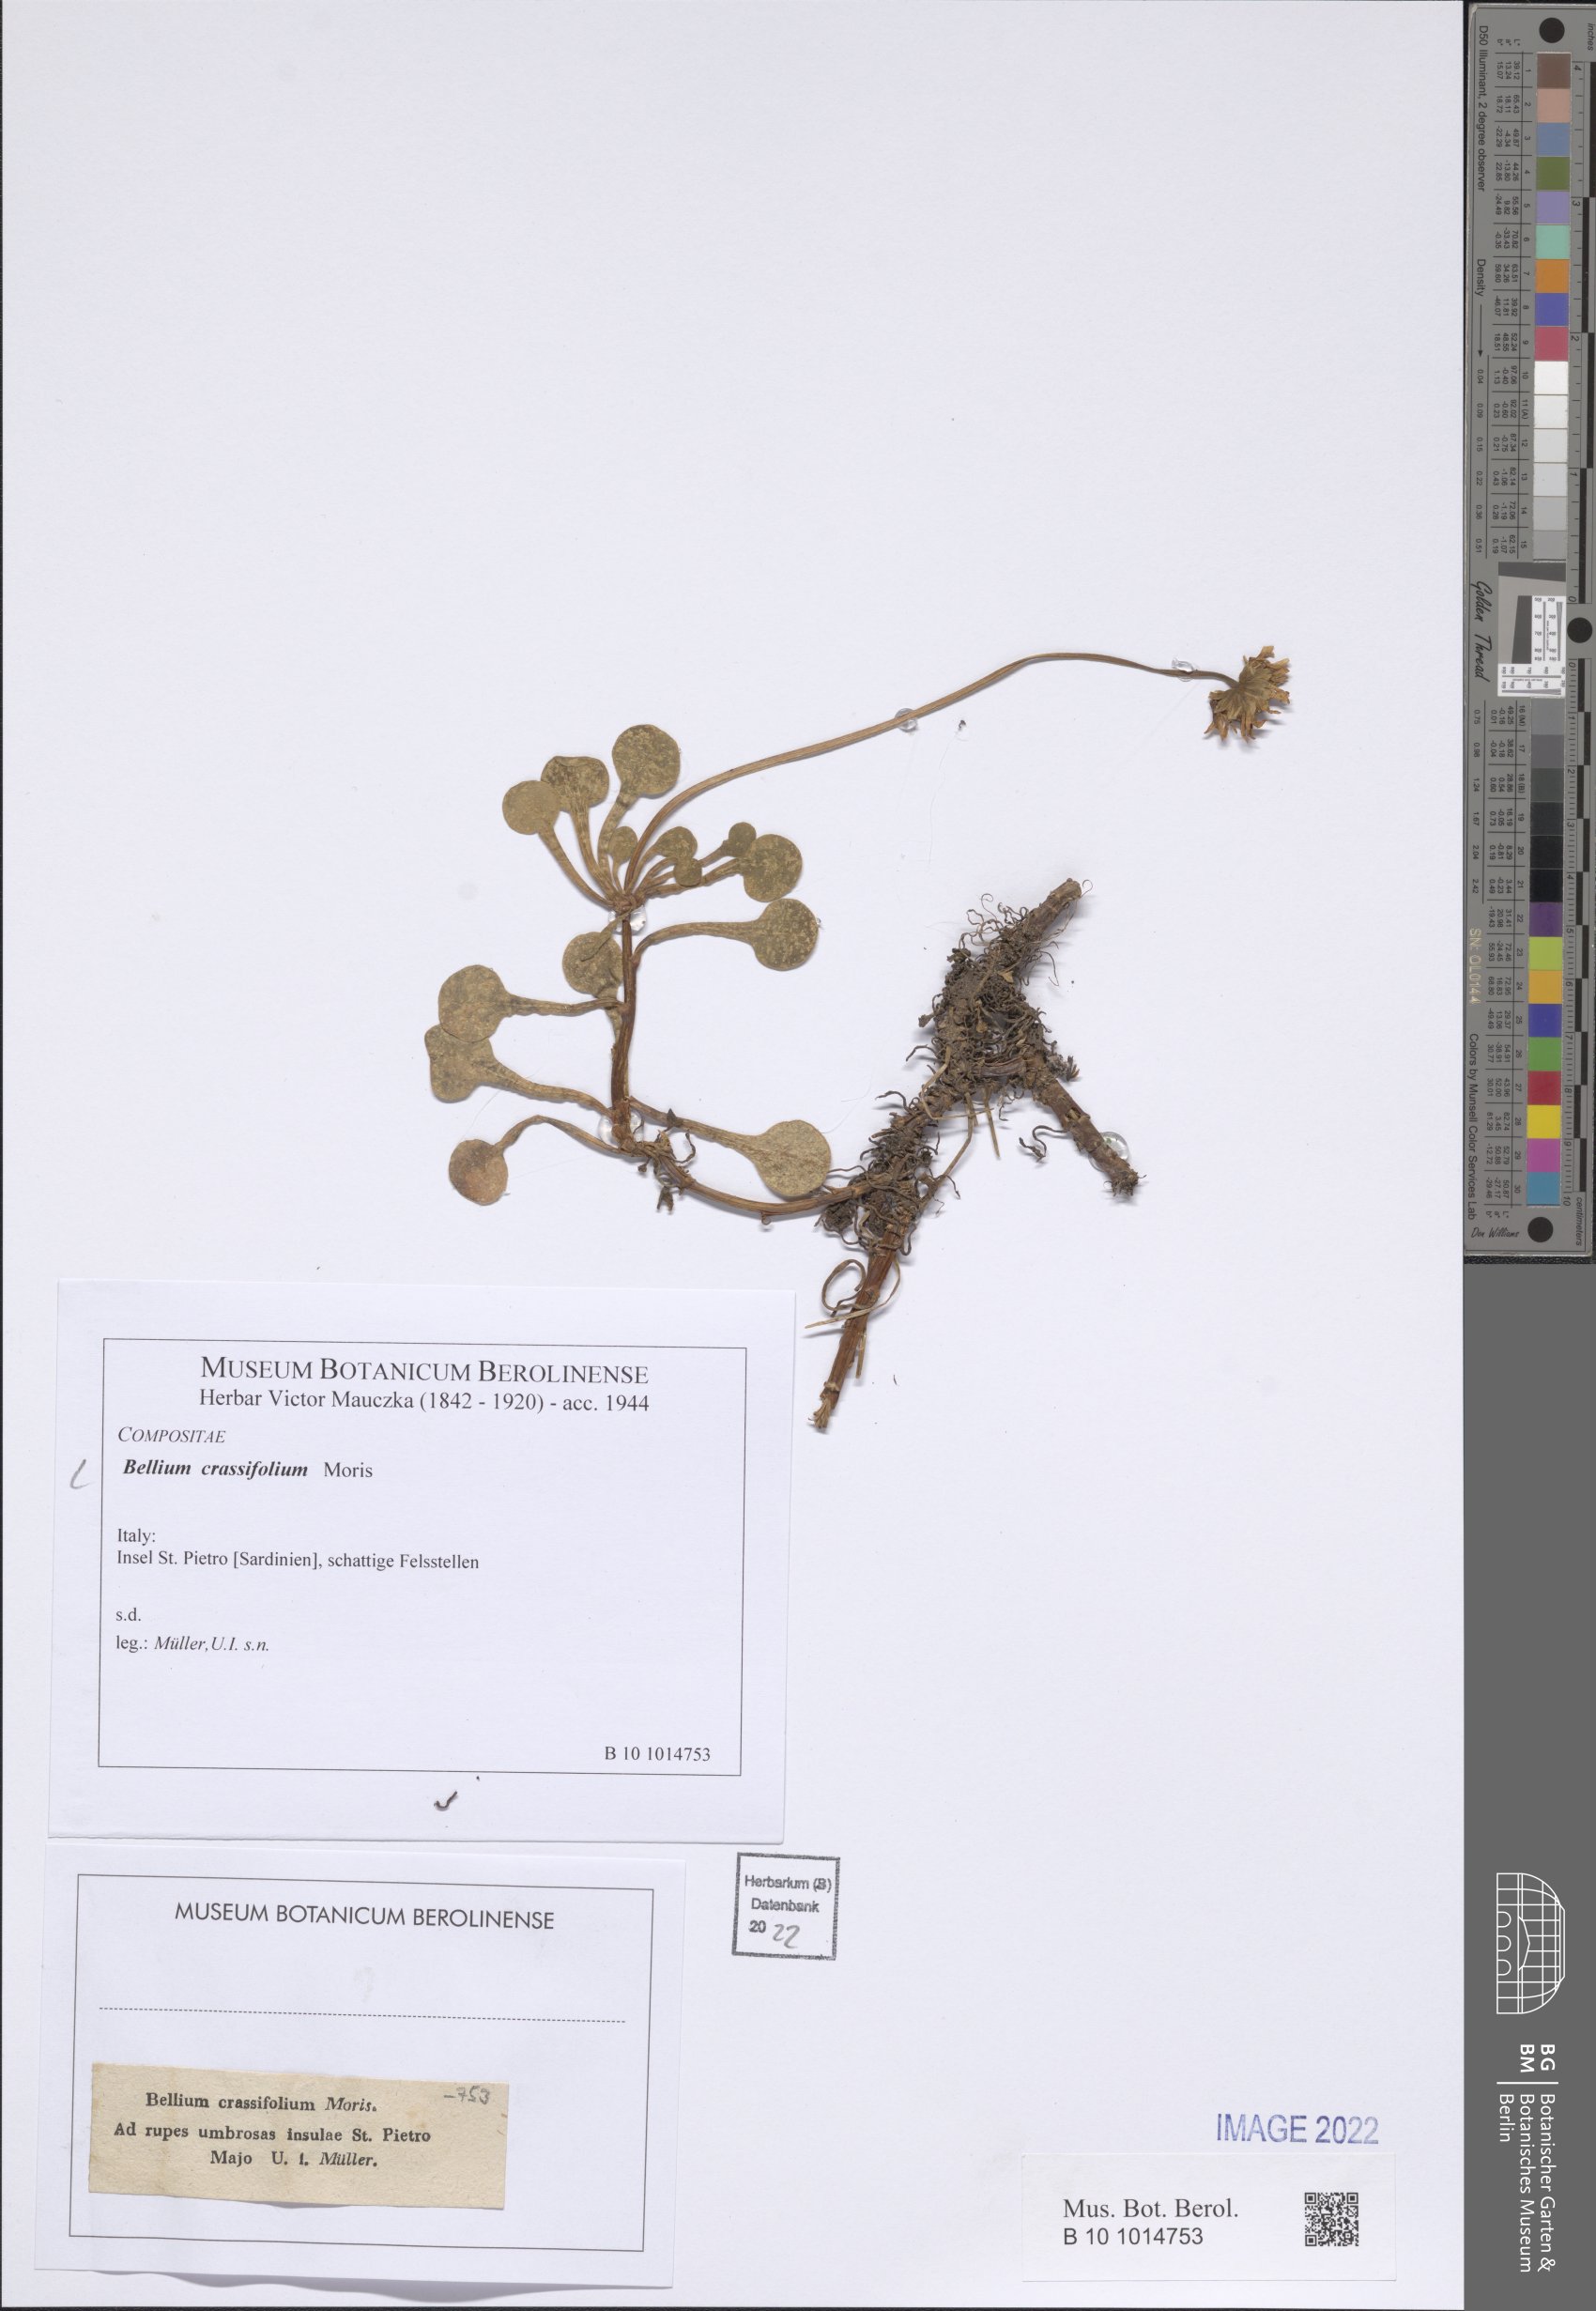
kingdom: Plantae
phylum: Tracheophyta
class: Magnoliopsida
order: Asterales
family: Asteraceae
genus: Bellium
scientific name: Bellium crassifolium
